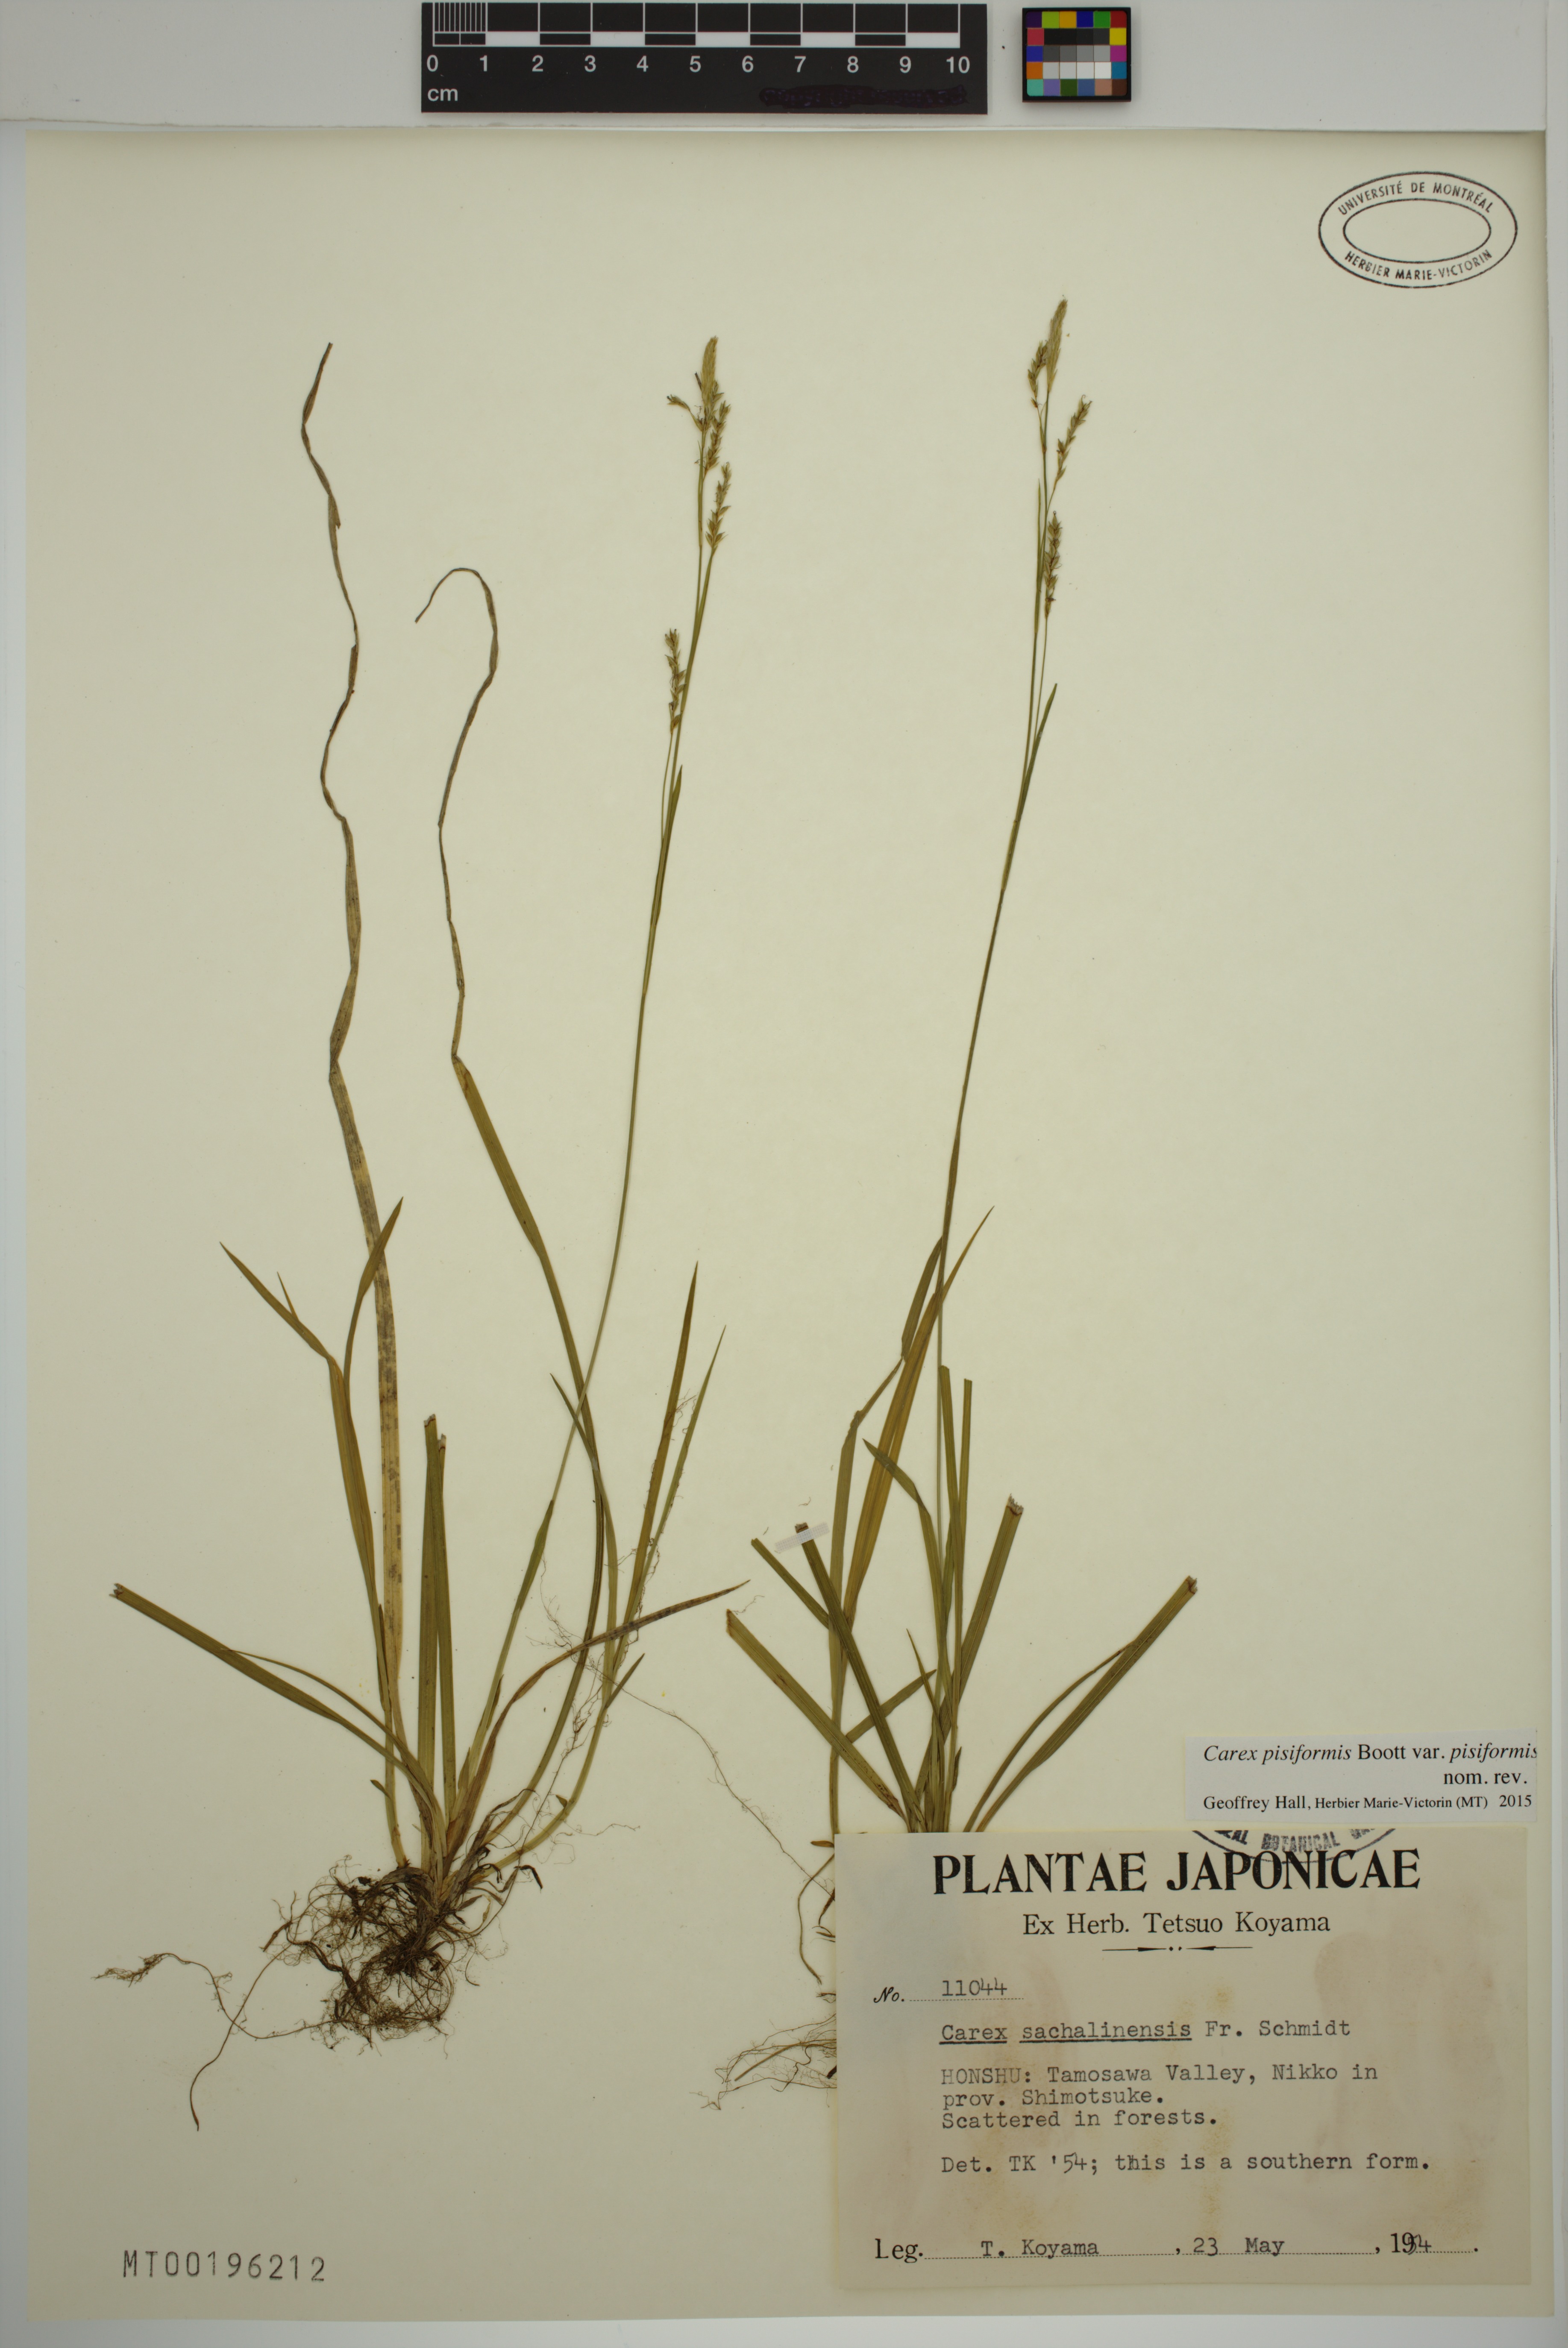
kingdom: Plantae
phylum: Tracheophyta
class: Liliopsida
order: Poales
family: Cyperaceae
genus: Carex
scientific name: Carex pisiformis
